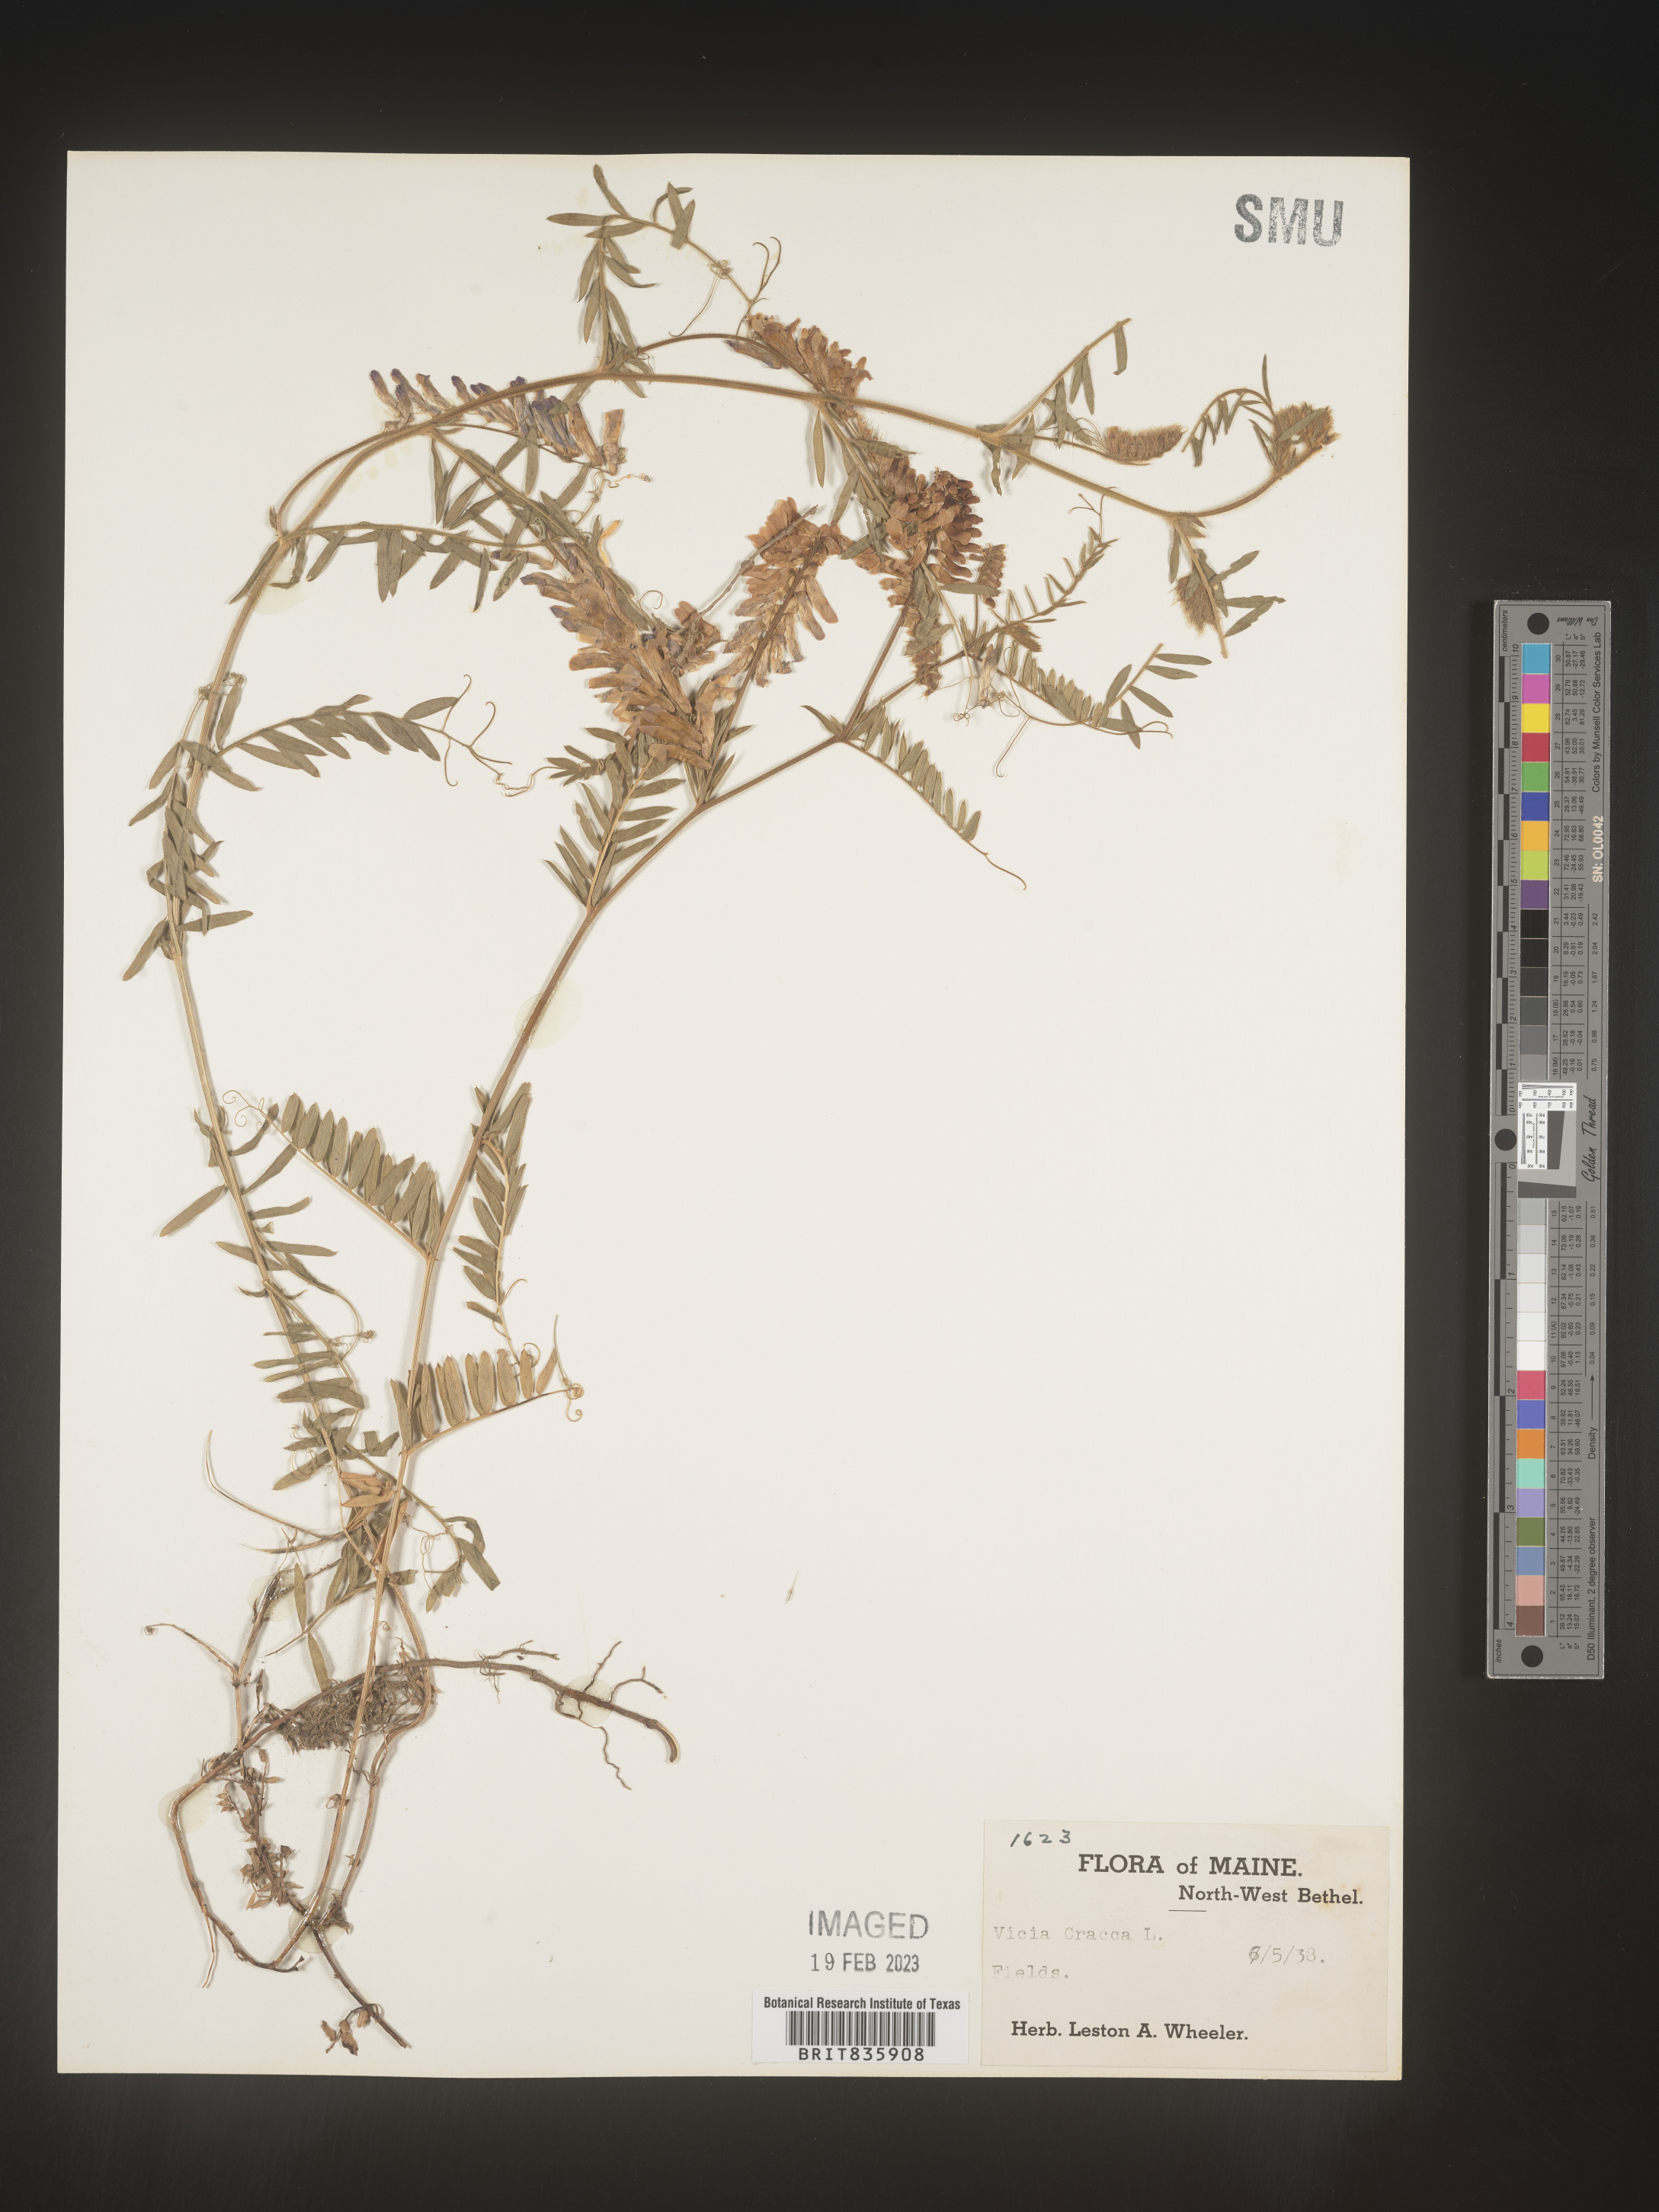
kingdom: Plantae
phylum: Tracheophyta
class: Magnoliopsida
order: Fabales
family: Fabaceae
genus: Vicia
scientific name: Vicia cracca
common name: Bird vetch
